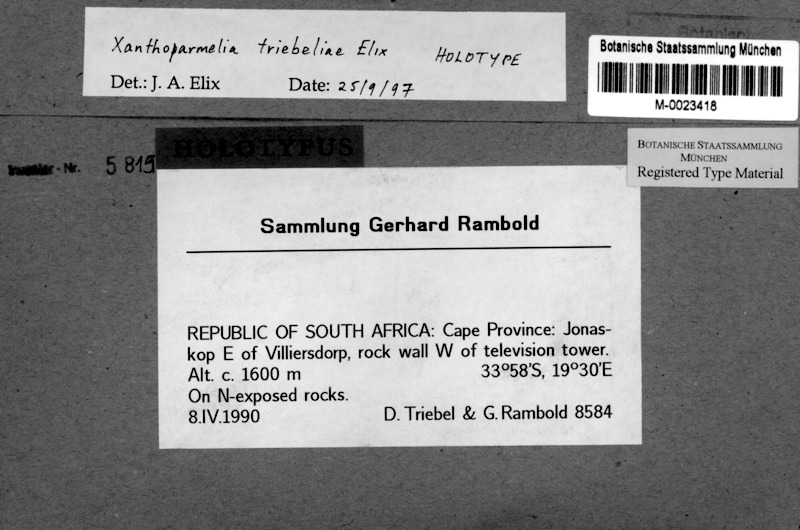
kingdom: Fungi
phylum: Ascomycota
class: Lecanoromycetes
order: Lecanorales
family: Parmeliaceae
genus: Xanthoparmelia
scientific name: Xanthoparmelia
